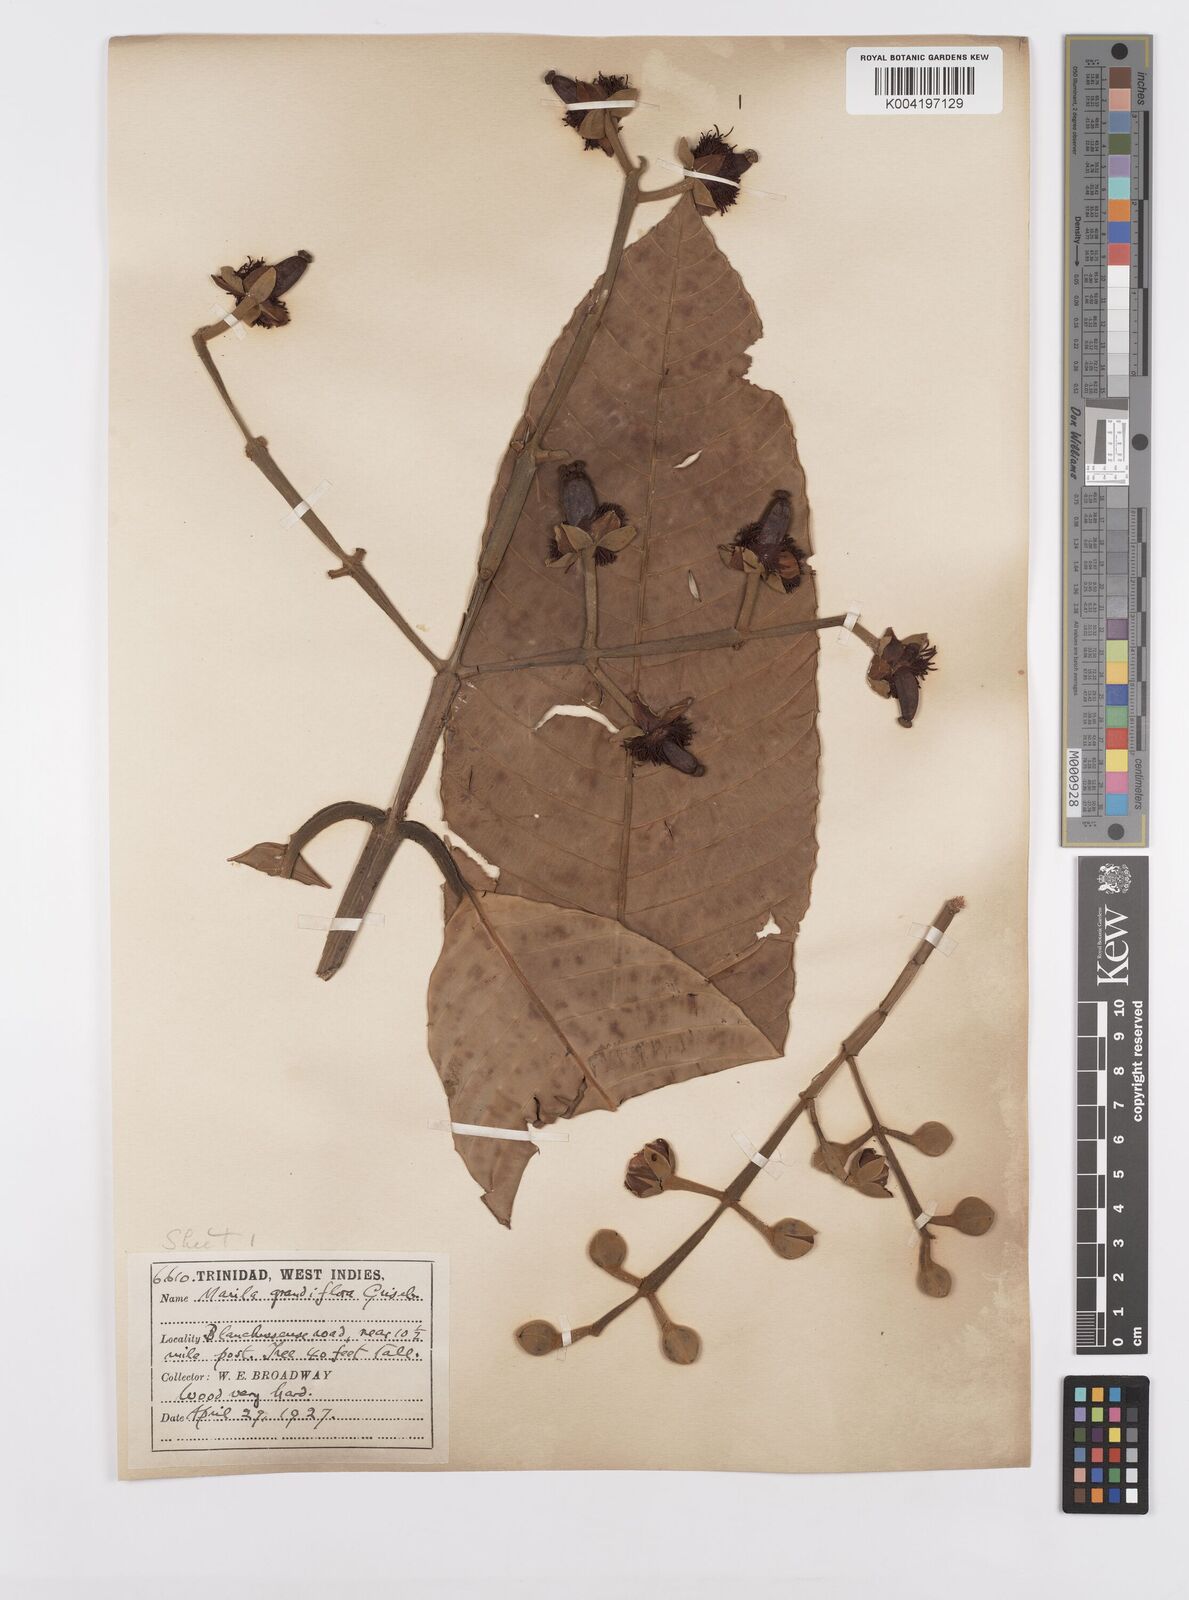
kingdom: Plantae
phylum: Tracheophyta
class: Magnoliopsida
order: Malpighiales
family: Calophyllaceae
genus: Marila
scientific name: Marila grandiflora
